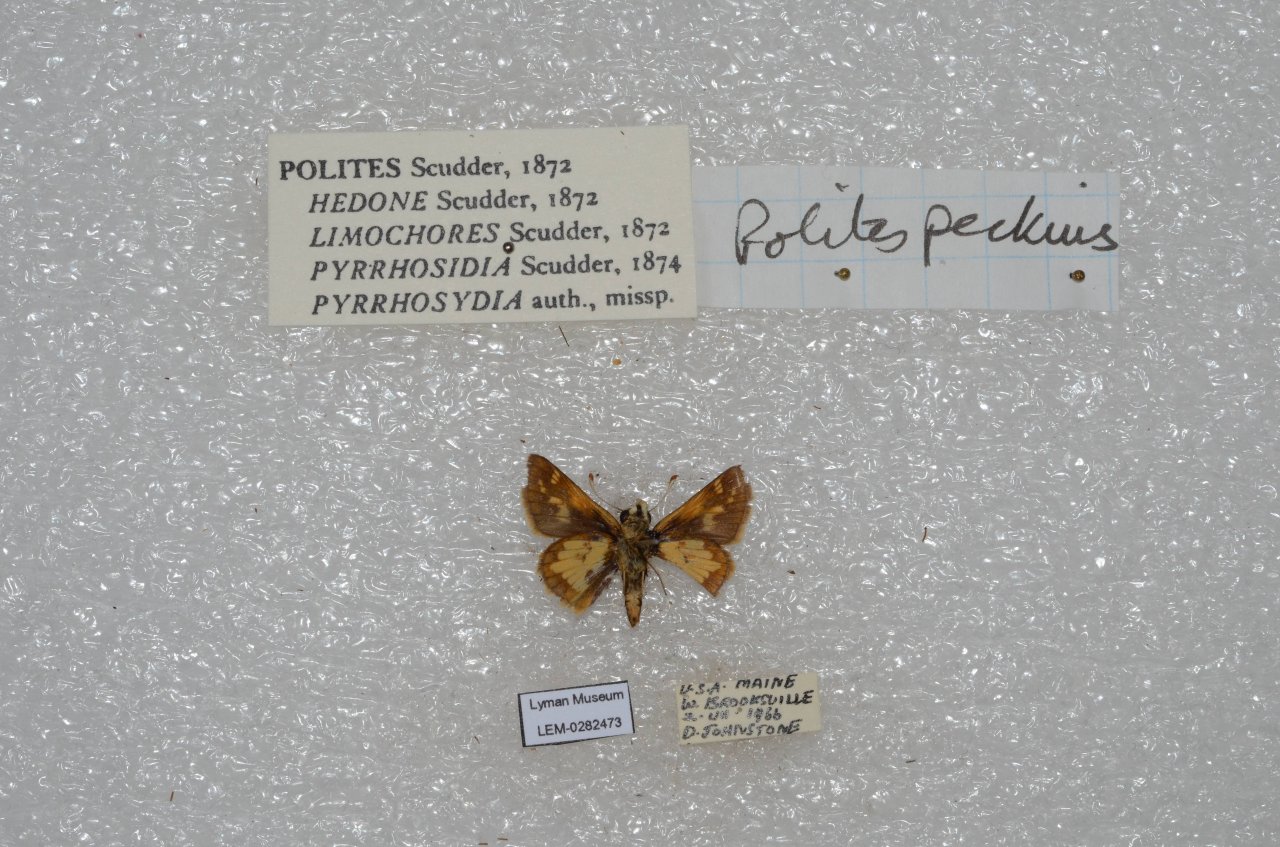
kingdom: Animalia
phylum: Arthropoda
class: Insecta
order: Lepidoptera
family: Hesperiidae
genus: Polites
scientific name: Polites coras
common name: Peck's Skipper
